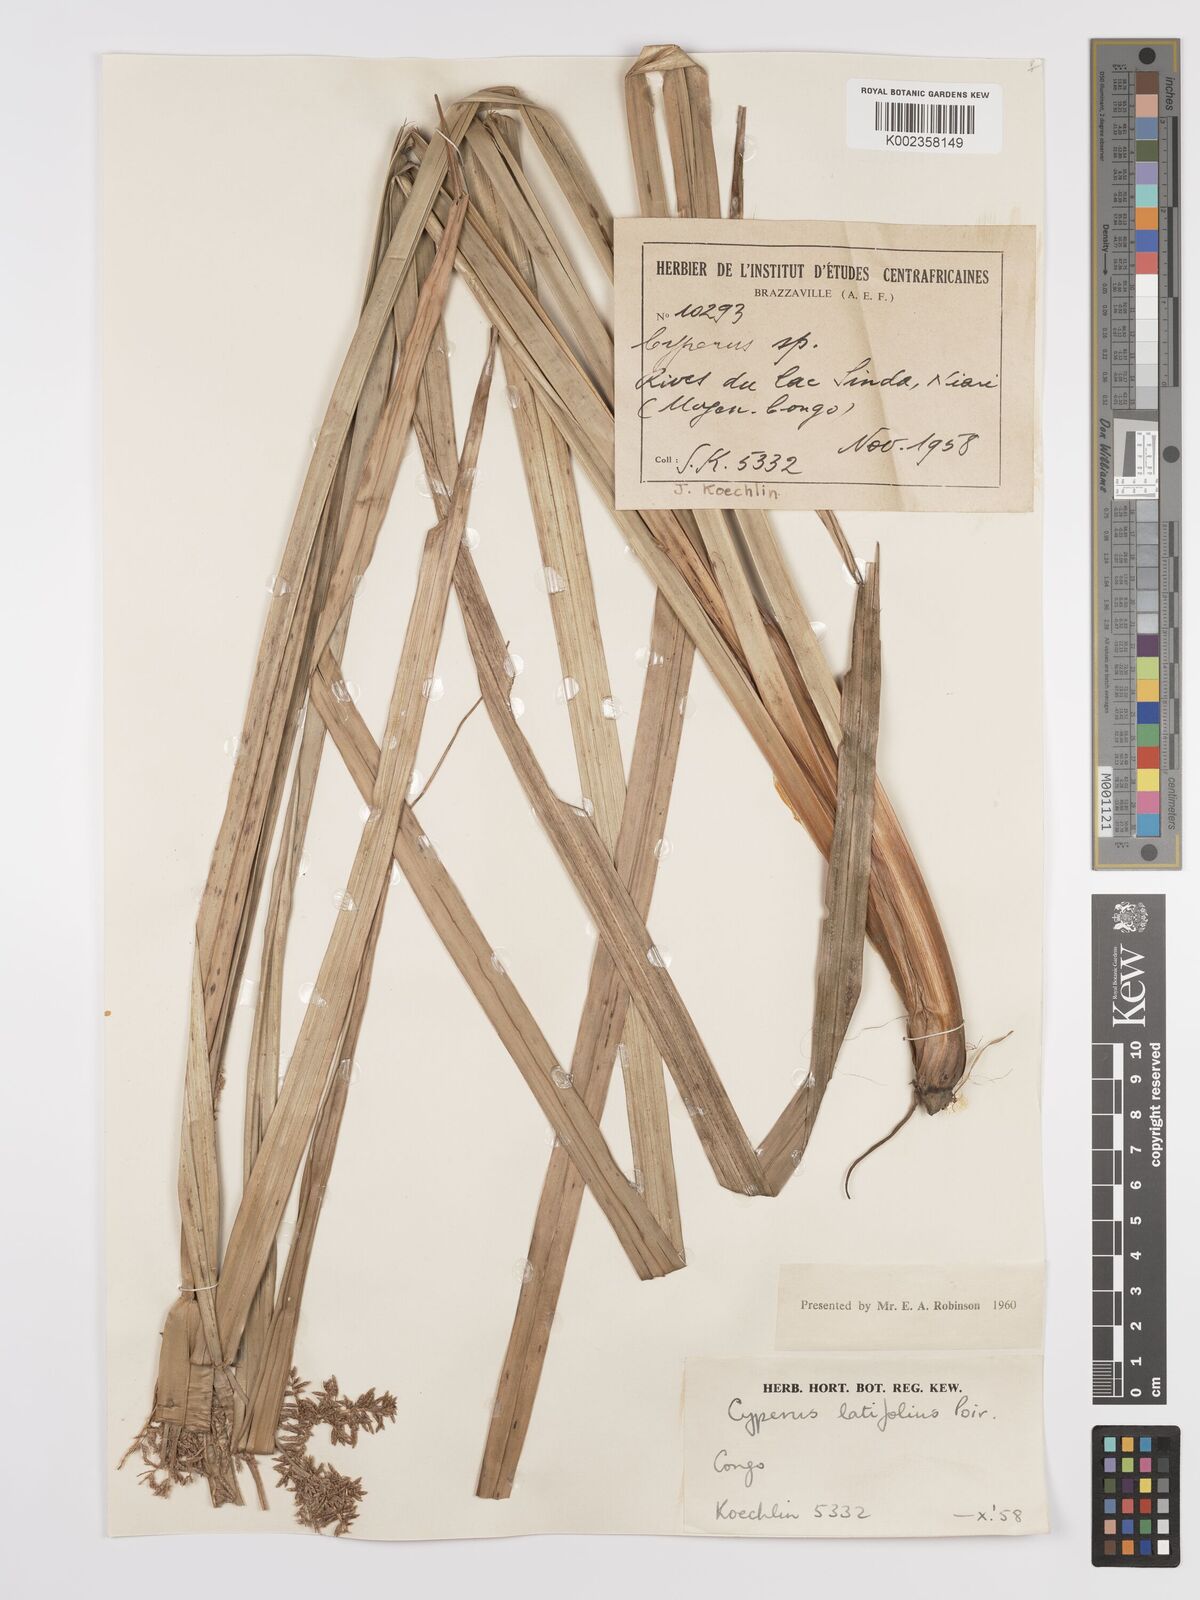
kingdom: Plantae
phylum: Tracheophyta
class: Liliopsida
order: Poales
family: Cyperaceae
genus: Cyperus
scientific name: Cyperus latifolius
